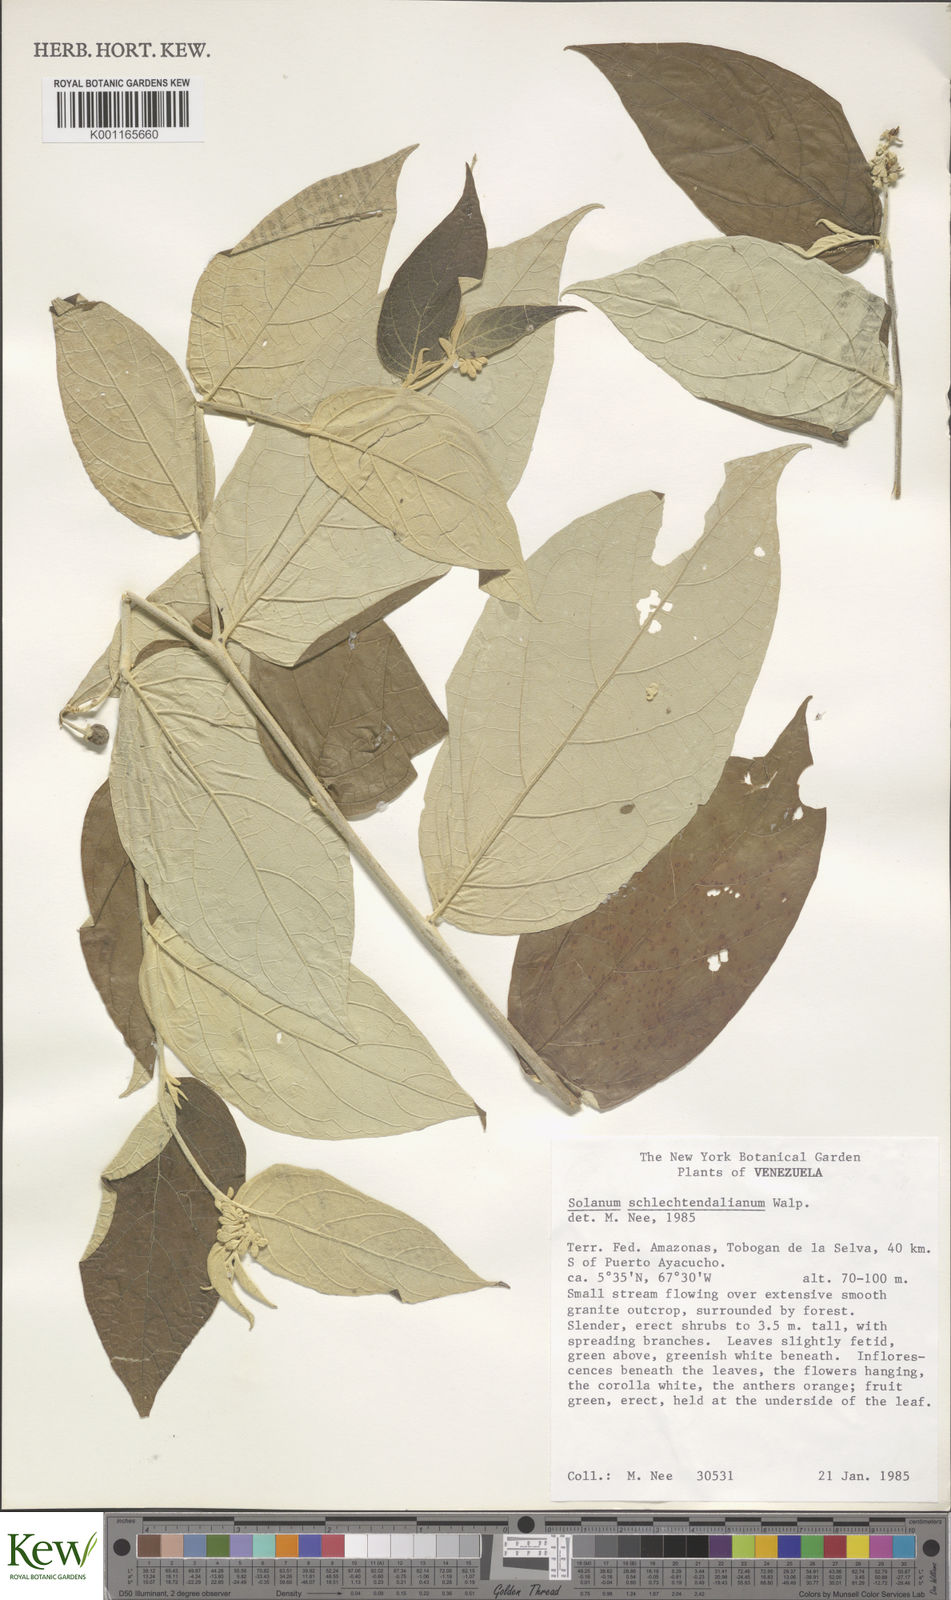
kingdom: Plantae
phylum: Tracheophyta
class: Magnoliopsida
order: Solanales
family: Solanaceae
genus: Solanum
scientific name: Solanum schlechtendalianum
